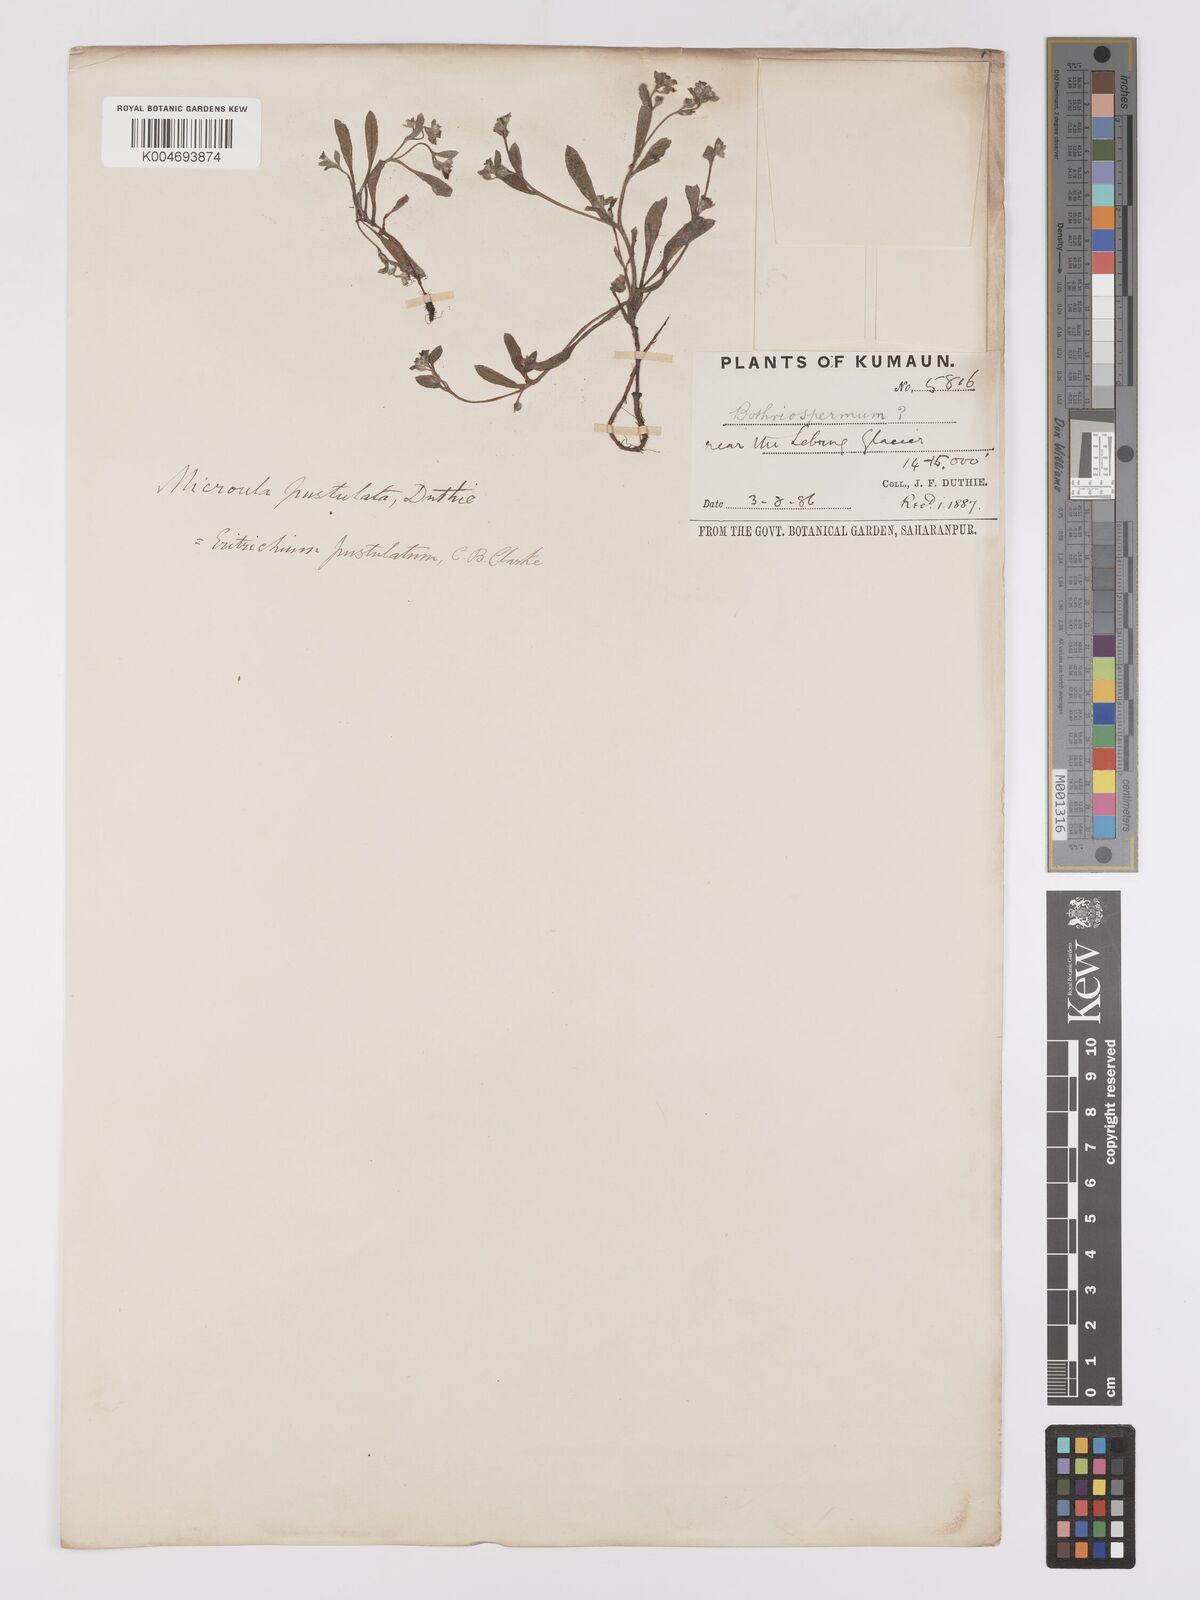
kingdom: Plantae
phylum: Tracheophyta
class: Magnoliopsida
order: Boraginales
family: Boraginaceae
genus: Microula
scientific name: Microula pustulosa
